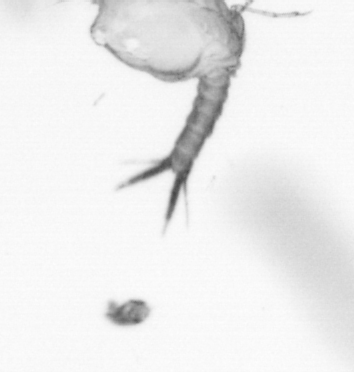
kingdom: Animalia
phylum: Arthropoda
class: Copepoda
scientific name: Copepoda
